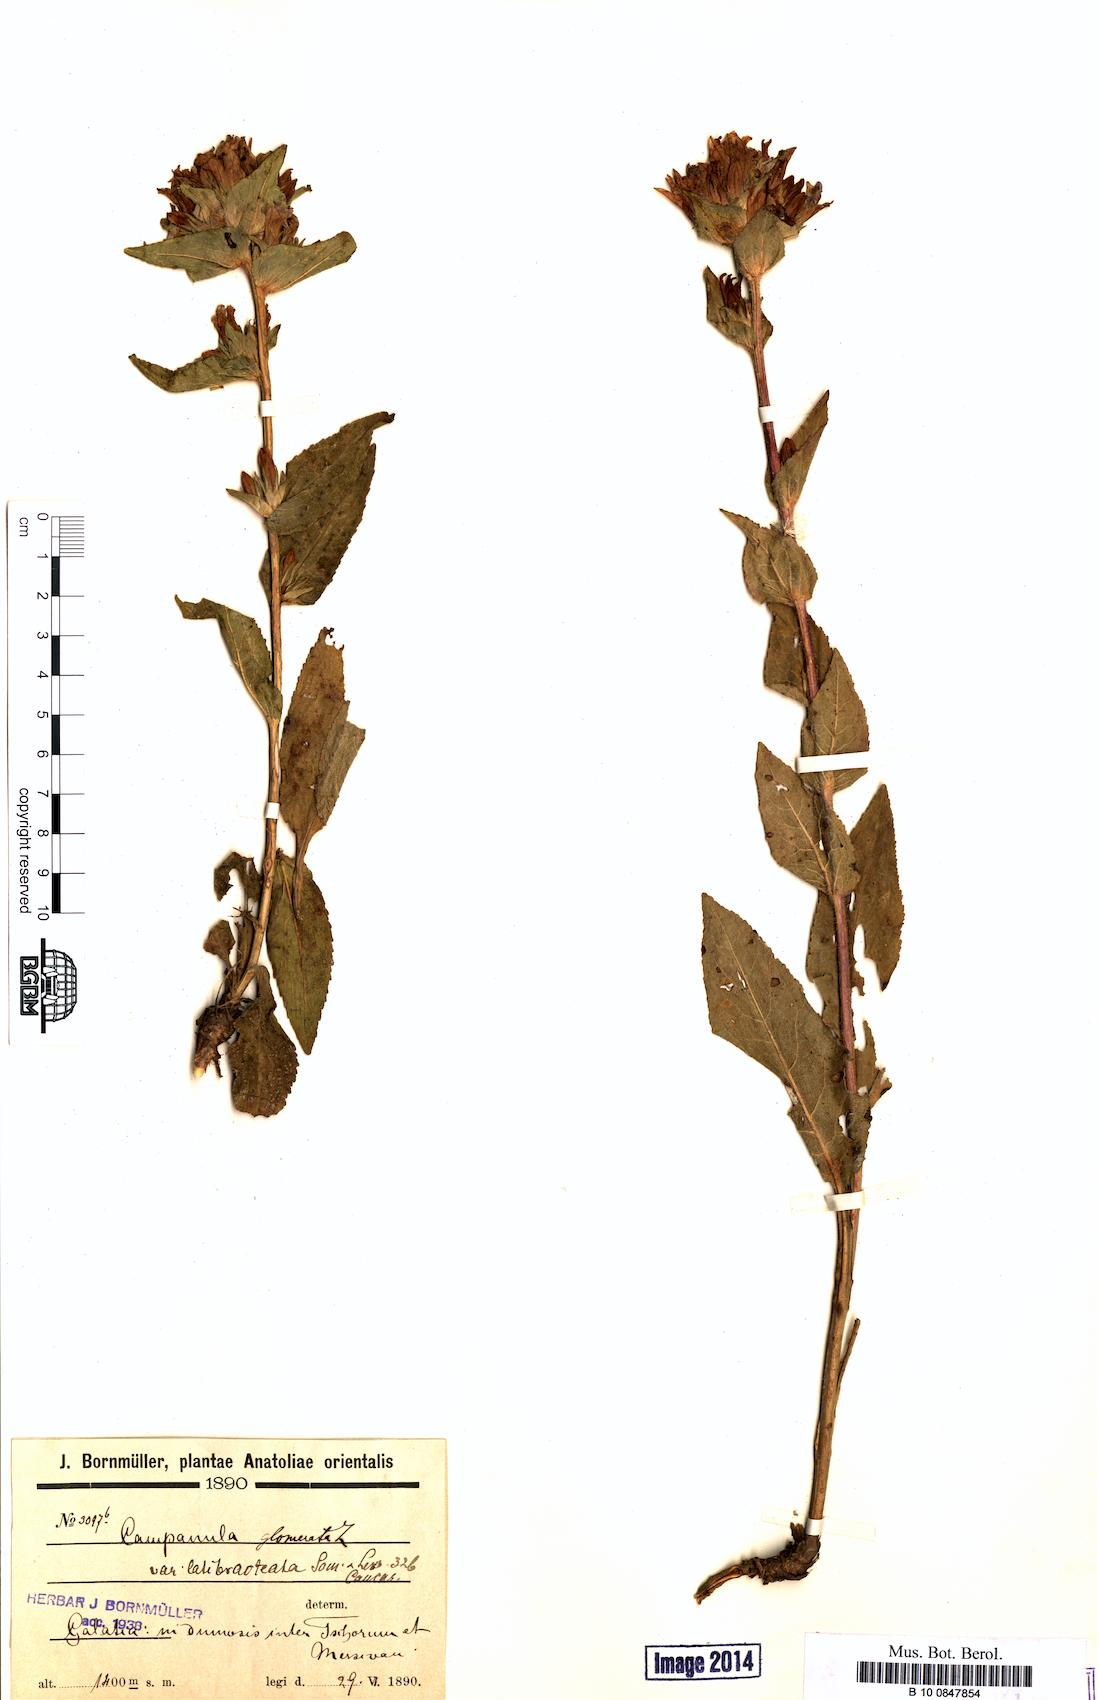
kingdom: Plantae
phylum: Tracheophyta
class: Magnoliopsida
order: Asterales
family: Campanulaceae
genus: Campanula
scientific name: Campanula glomerata
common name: Clustered bellflower
